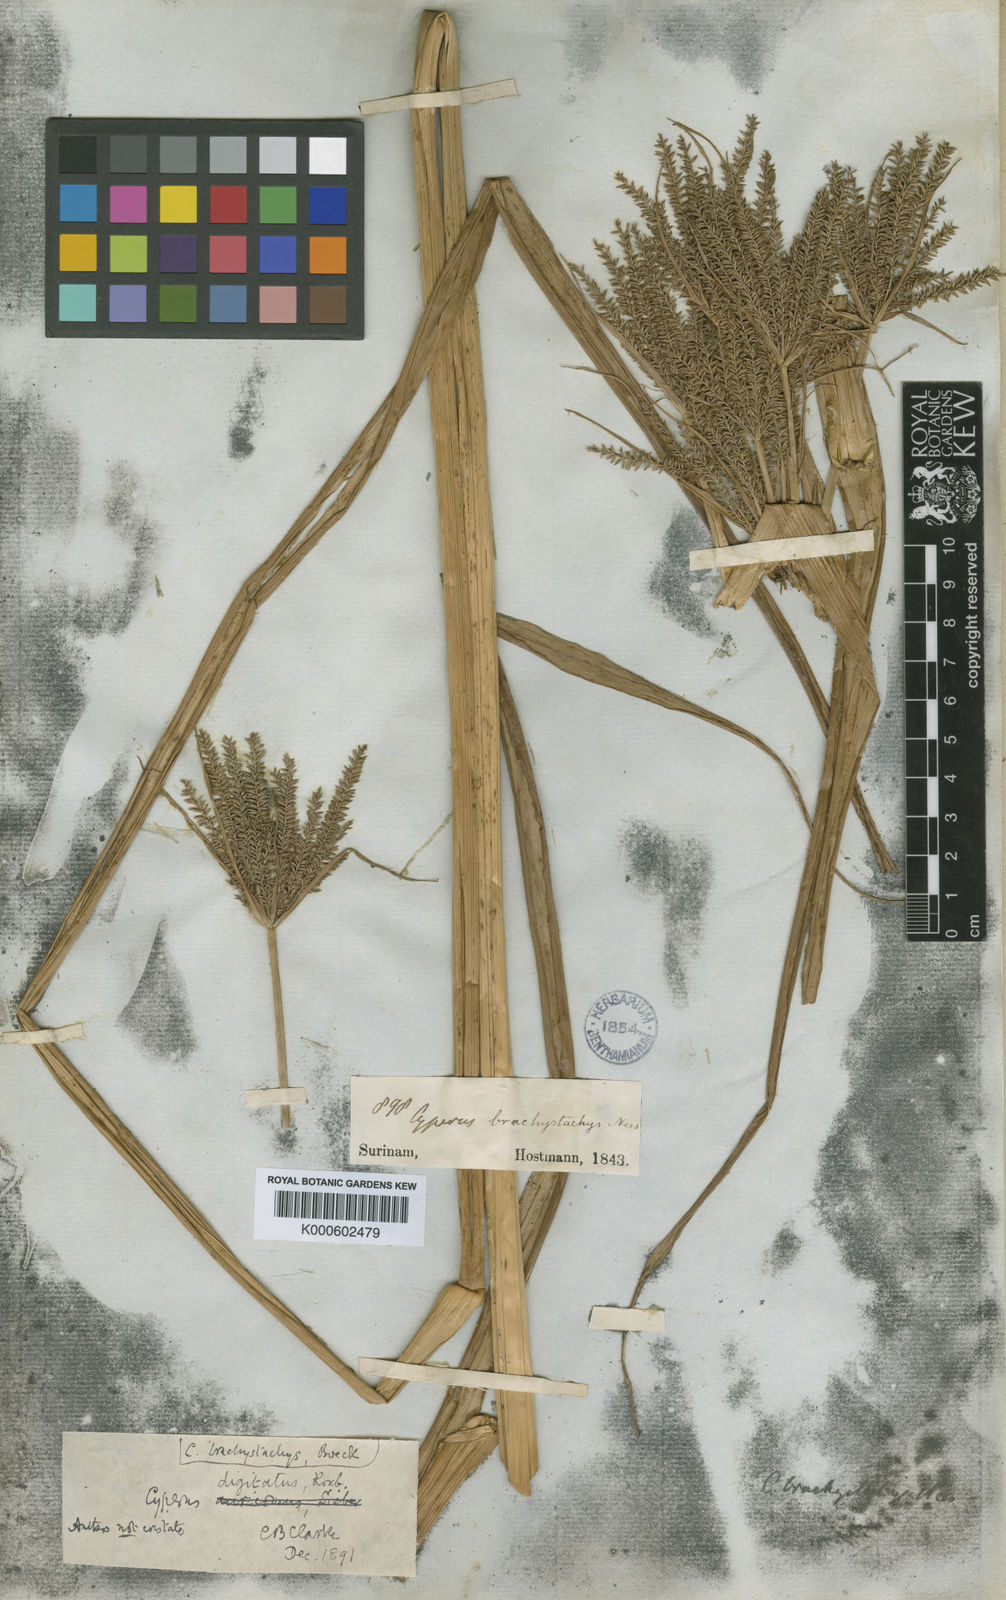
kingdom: Plantae
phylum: Tracheophyta
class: Liliopsida
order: Poales
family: Cyperaceae
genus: Cyperus
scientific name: Cyperus digitatus
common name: Finger flatsedge
